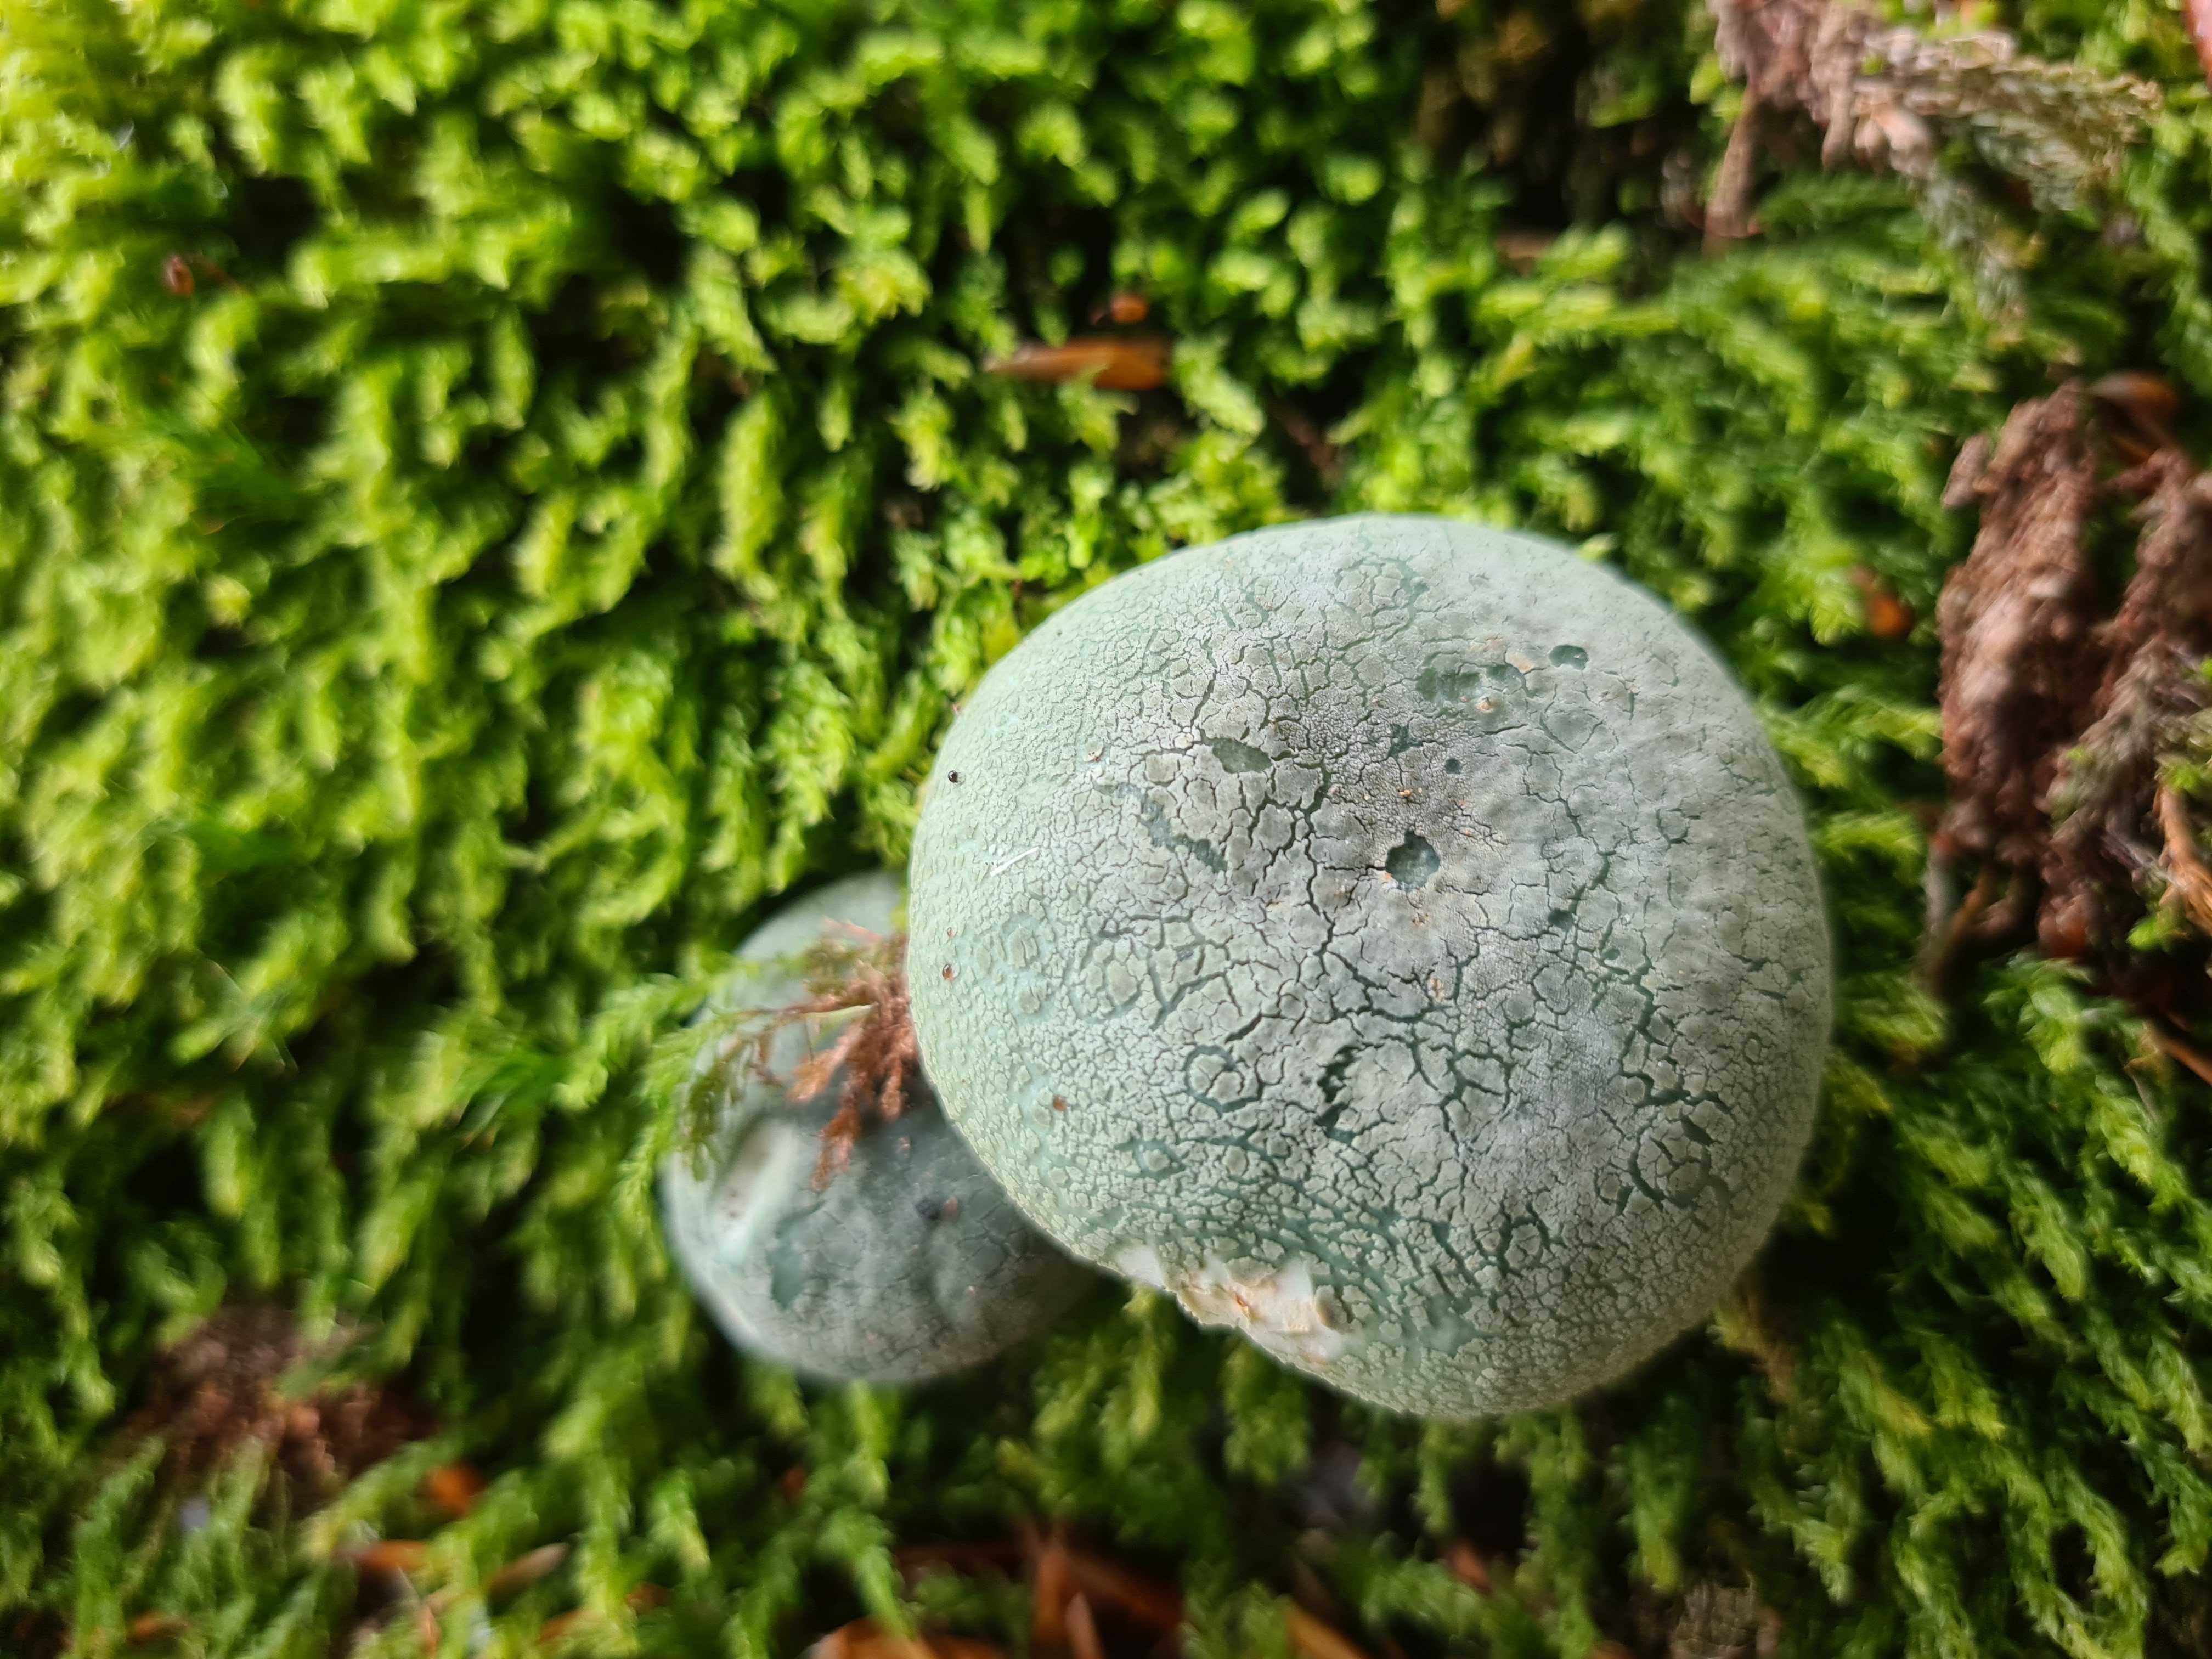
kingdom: Fungi
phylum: Basidiomycota
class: Agaricomycetes
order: Russulales
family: Russulaceae
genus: Russula
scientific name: Russula virescens
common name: spanskgrøn skørhat
